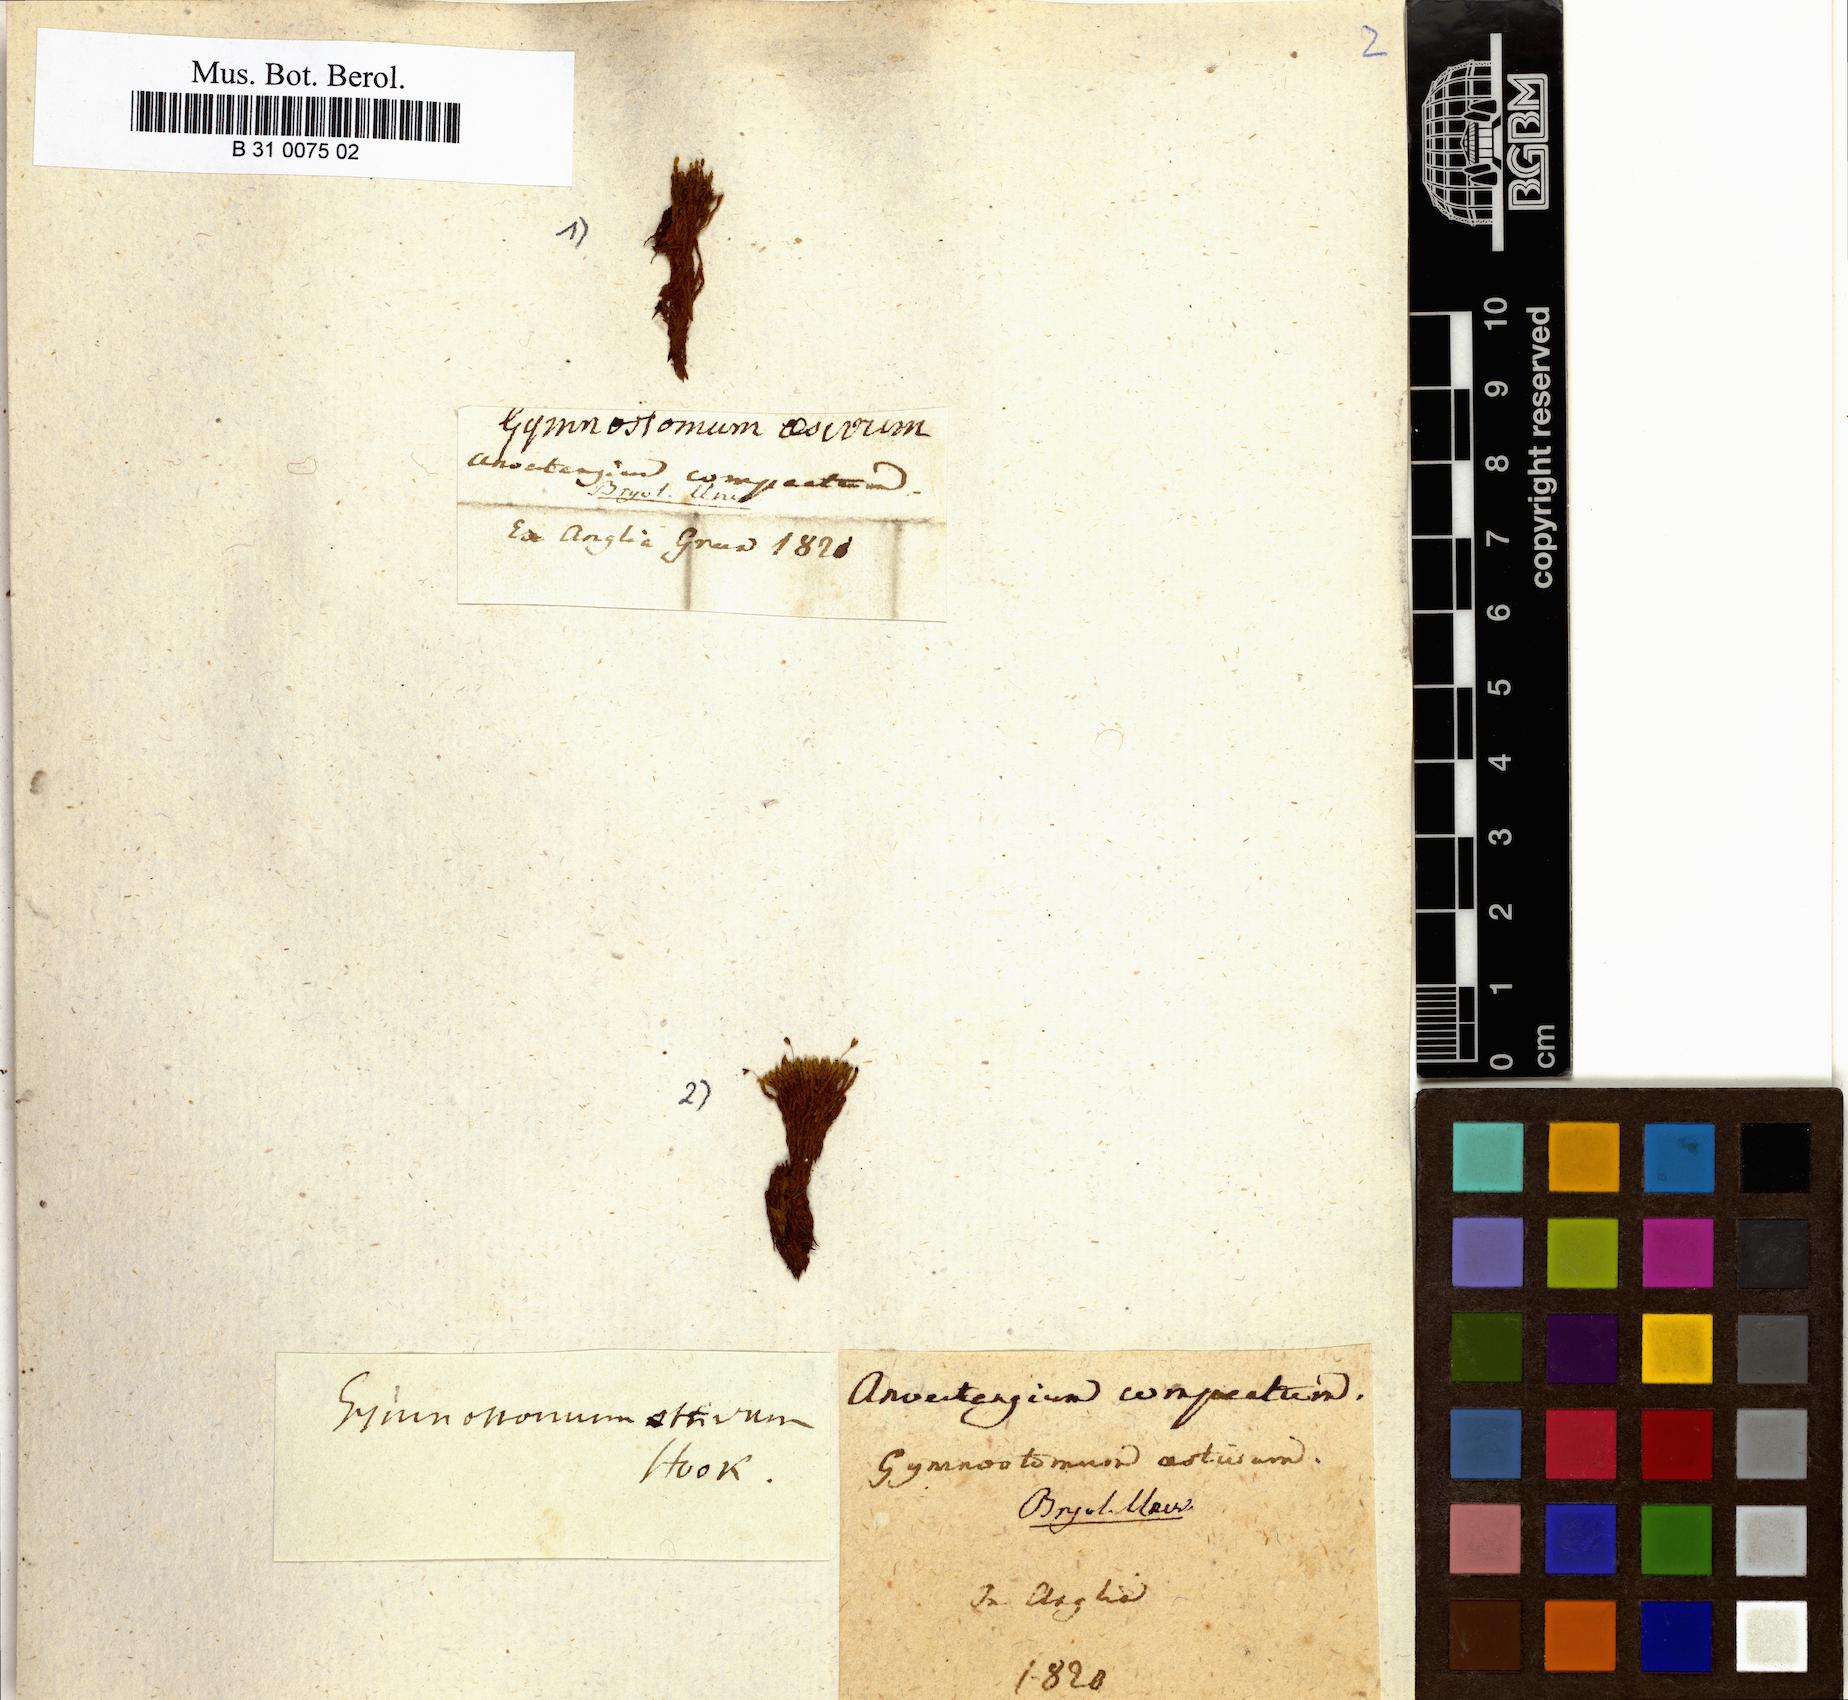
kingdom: Plantae
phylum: Bryophyta
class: Bryopsida
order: Pottiales
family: Pottiaceae
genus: Anoectangium
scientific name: Anoectangium aestivum
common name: Summer-moss
